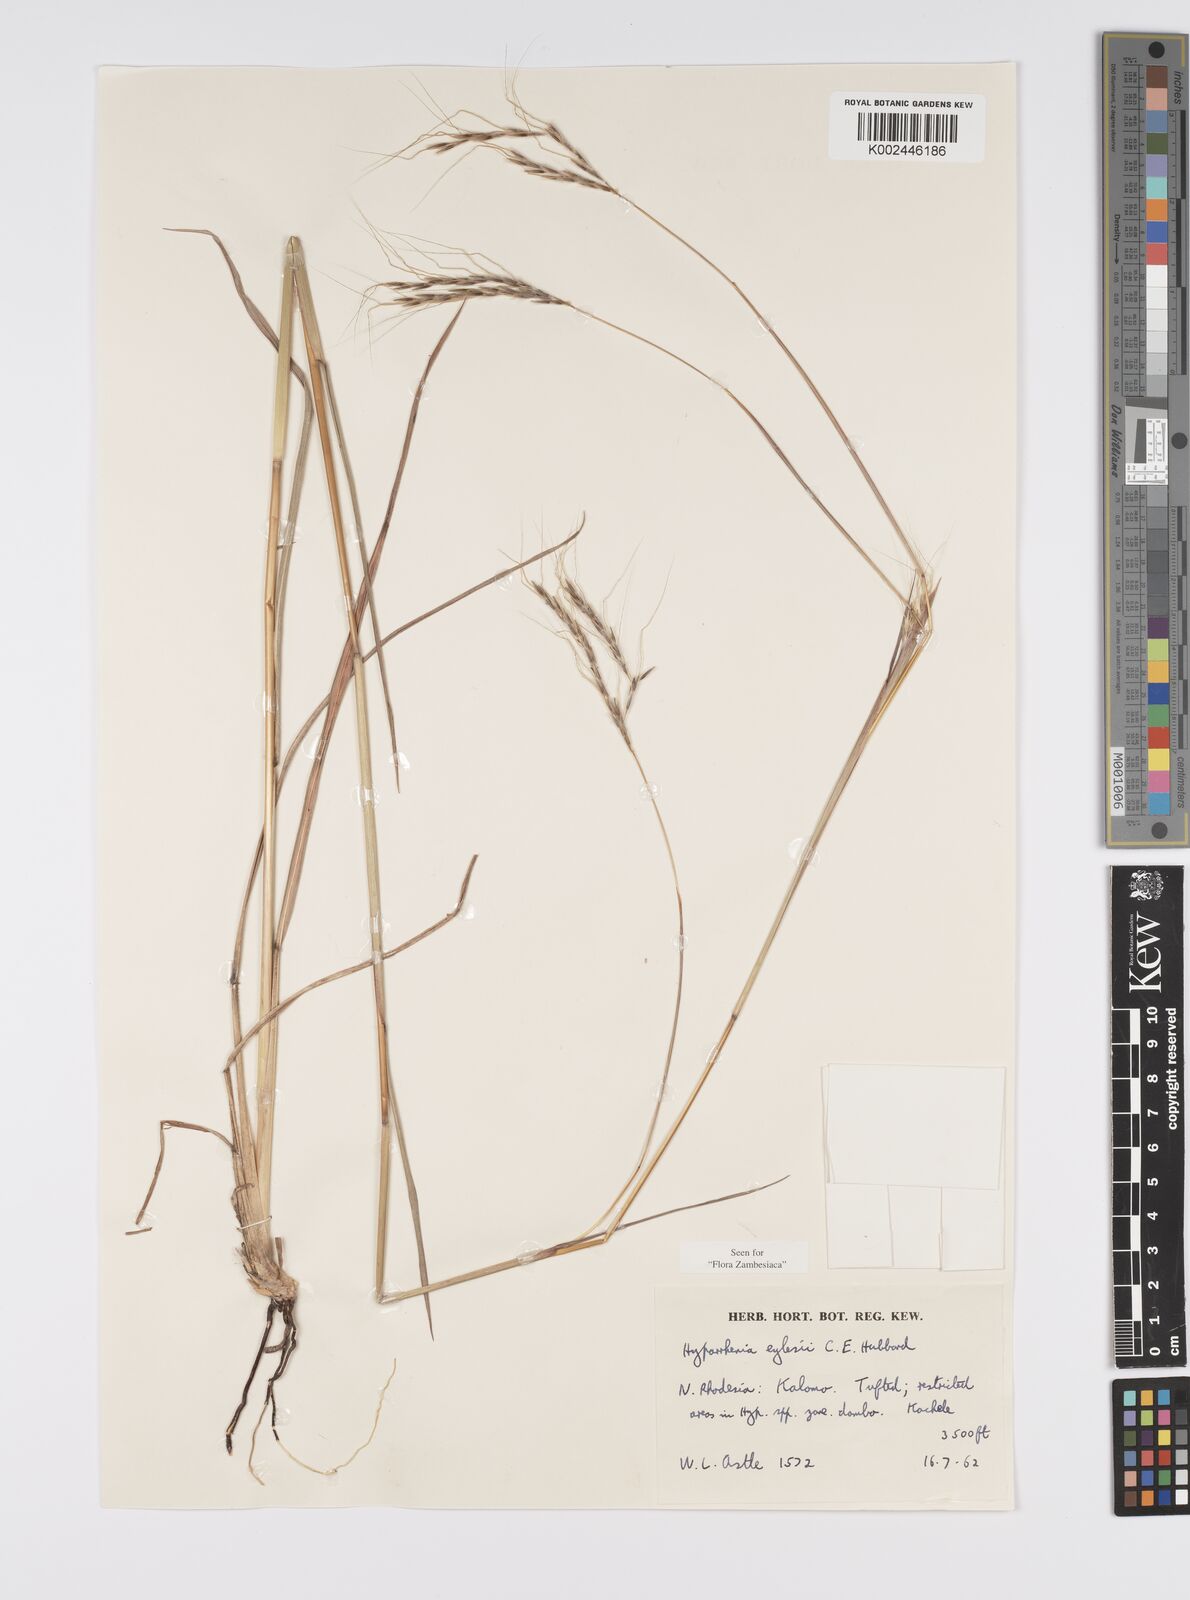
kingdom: Plantae
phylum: Tracheophyta
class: Liliopsida
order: Poales
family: Poaceae
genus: Elymandra
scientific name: Elymandra grallata
